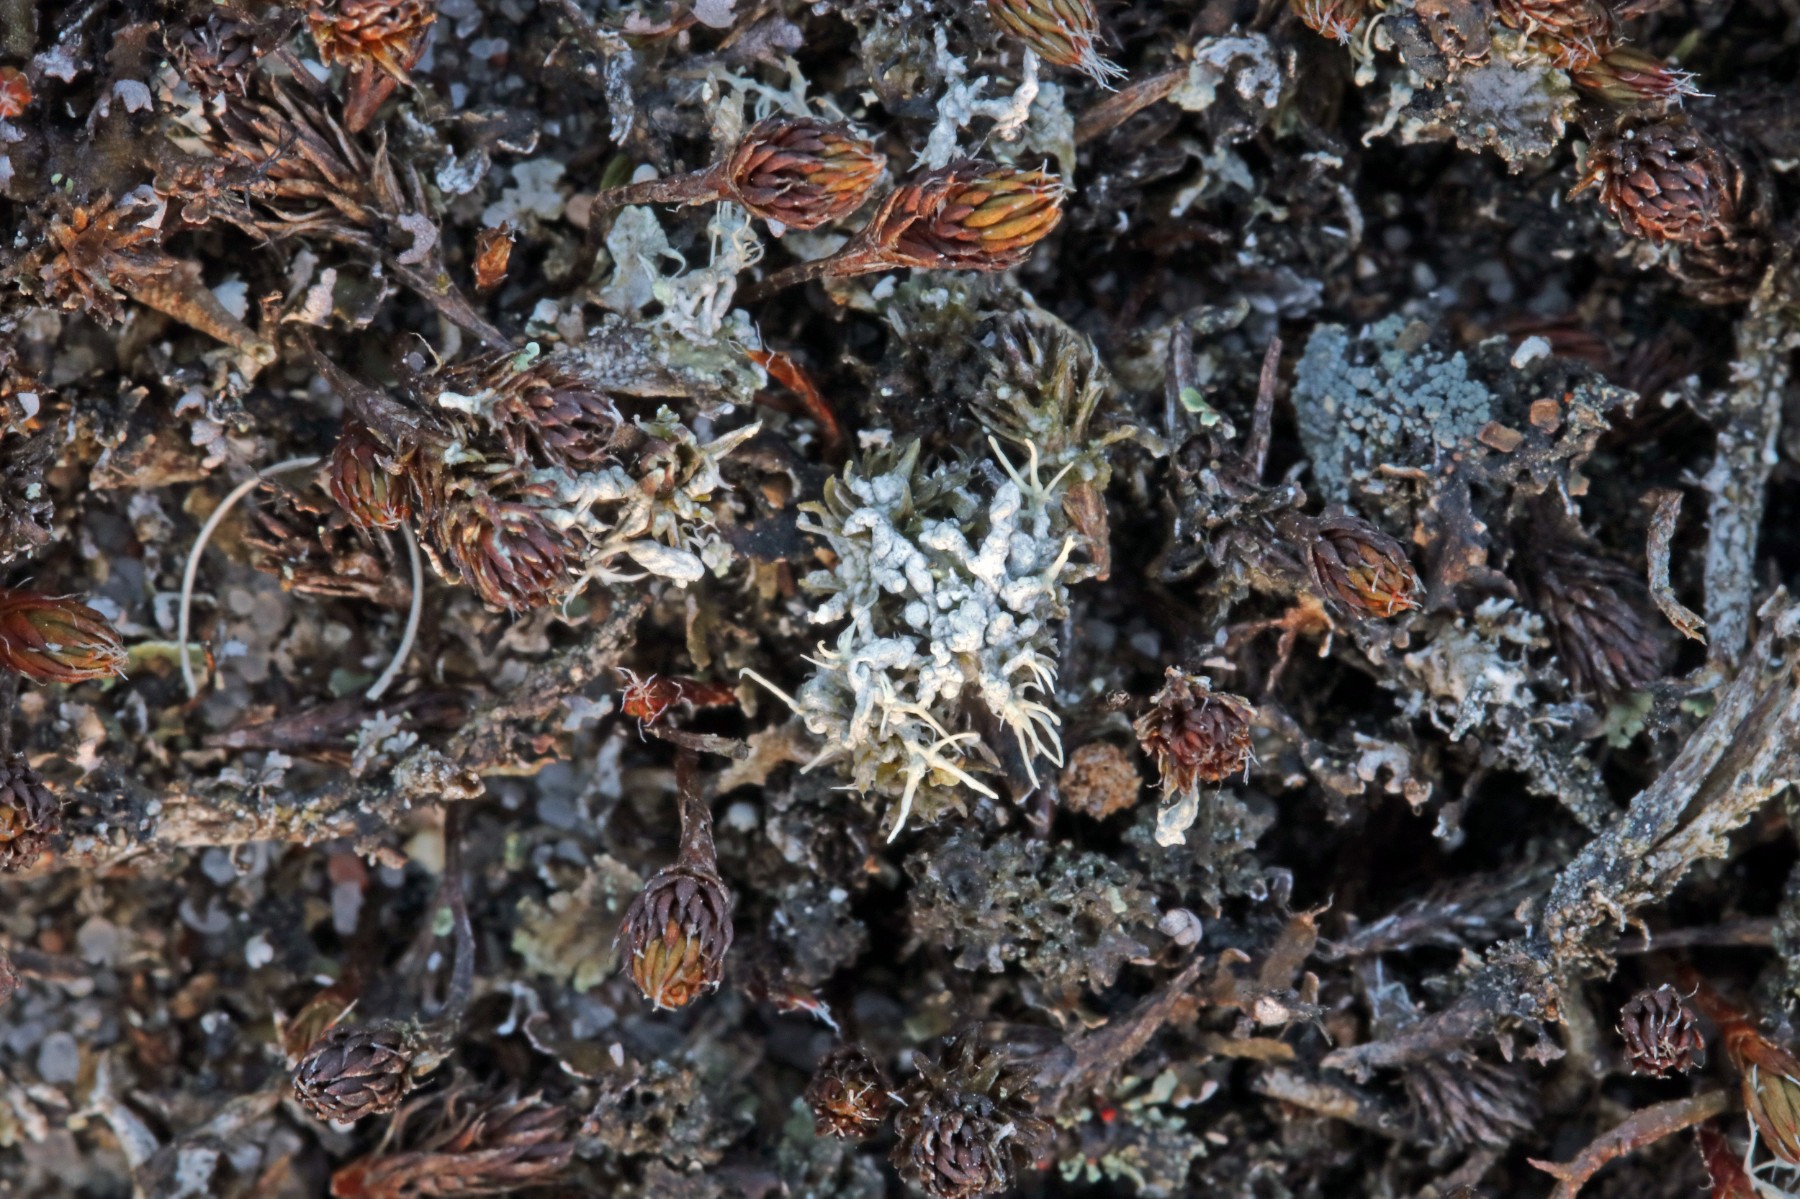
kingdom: Fungi
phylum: Ascomycota
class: Lecanoromycetes
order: Pertusariales
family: Ochrolechiaceae
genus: Ochrolechia
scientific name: Ochrolechia frigida
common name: fjeld-blegskivelav
